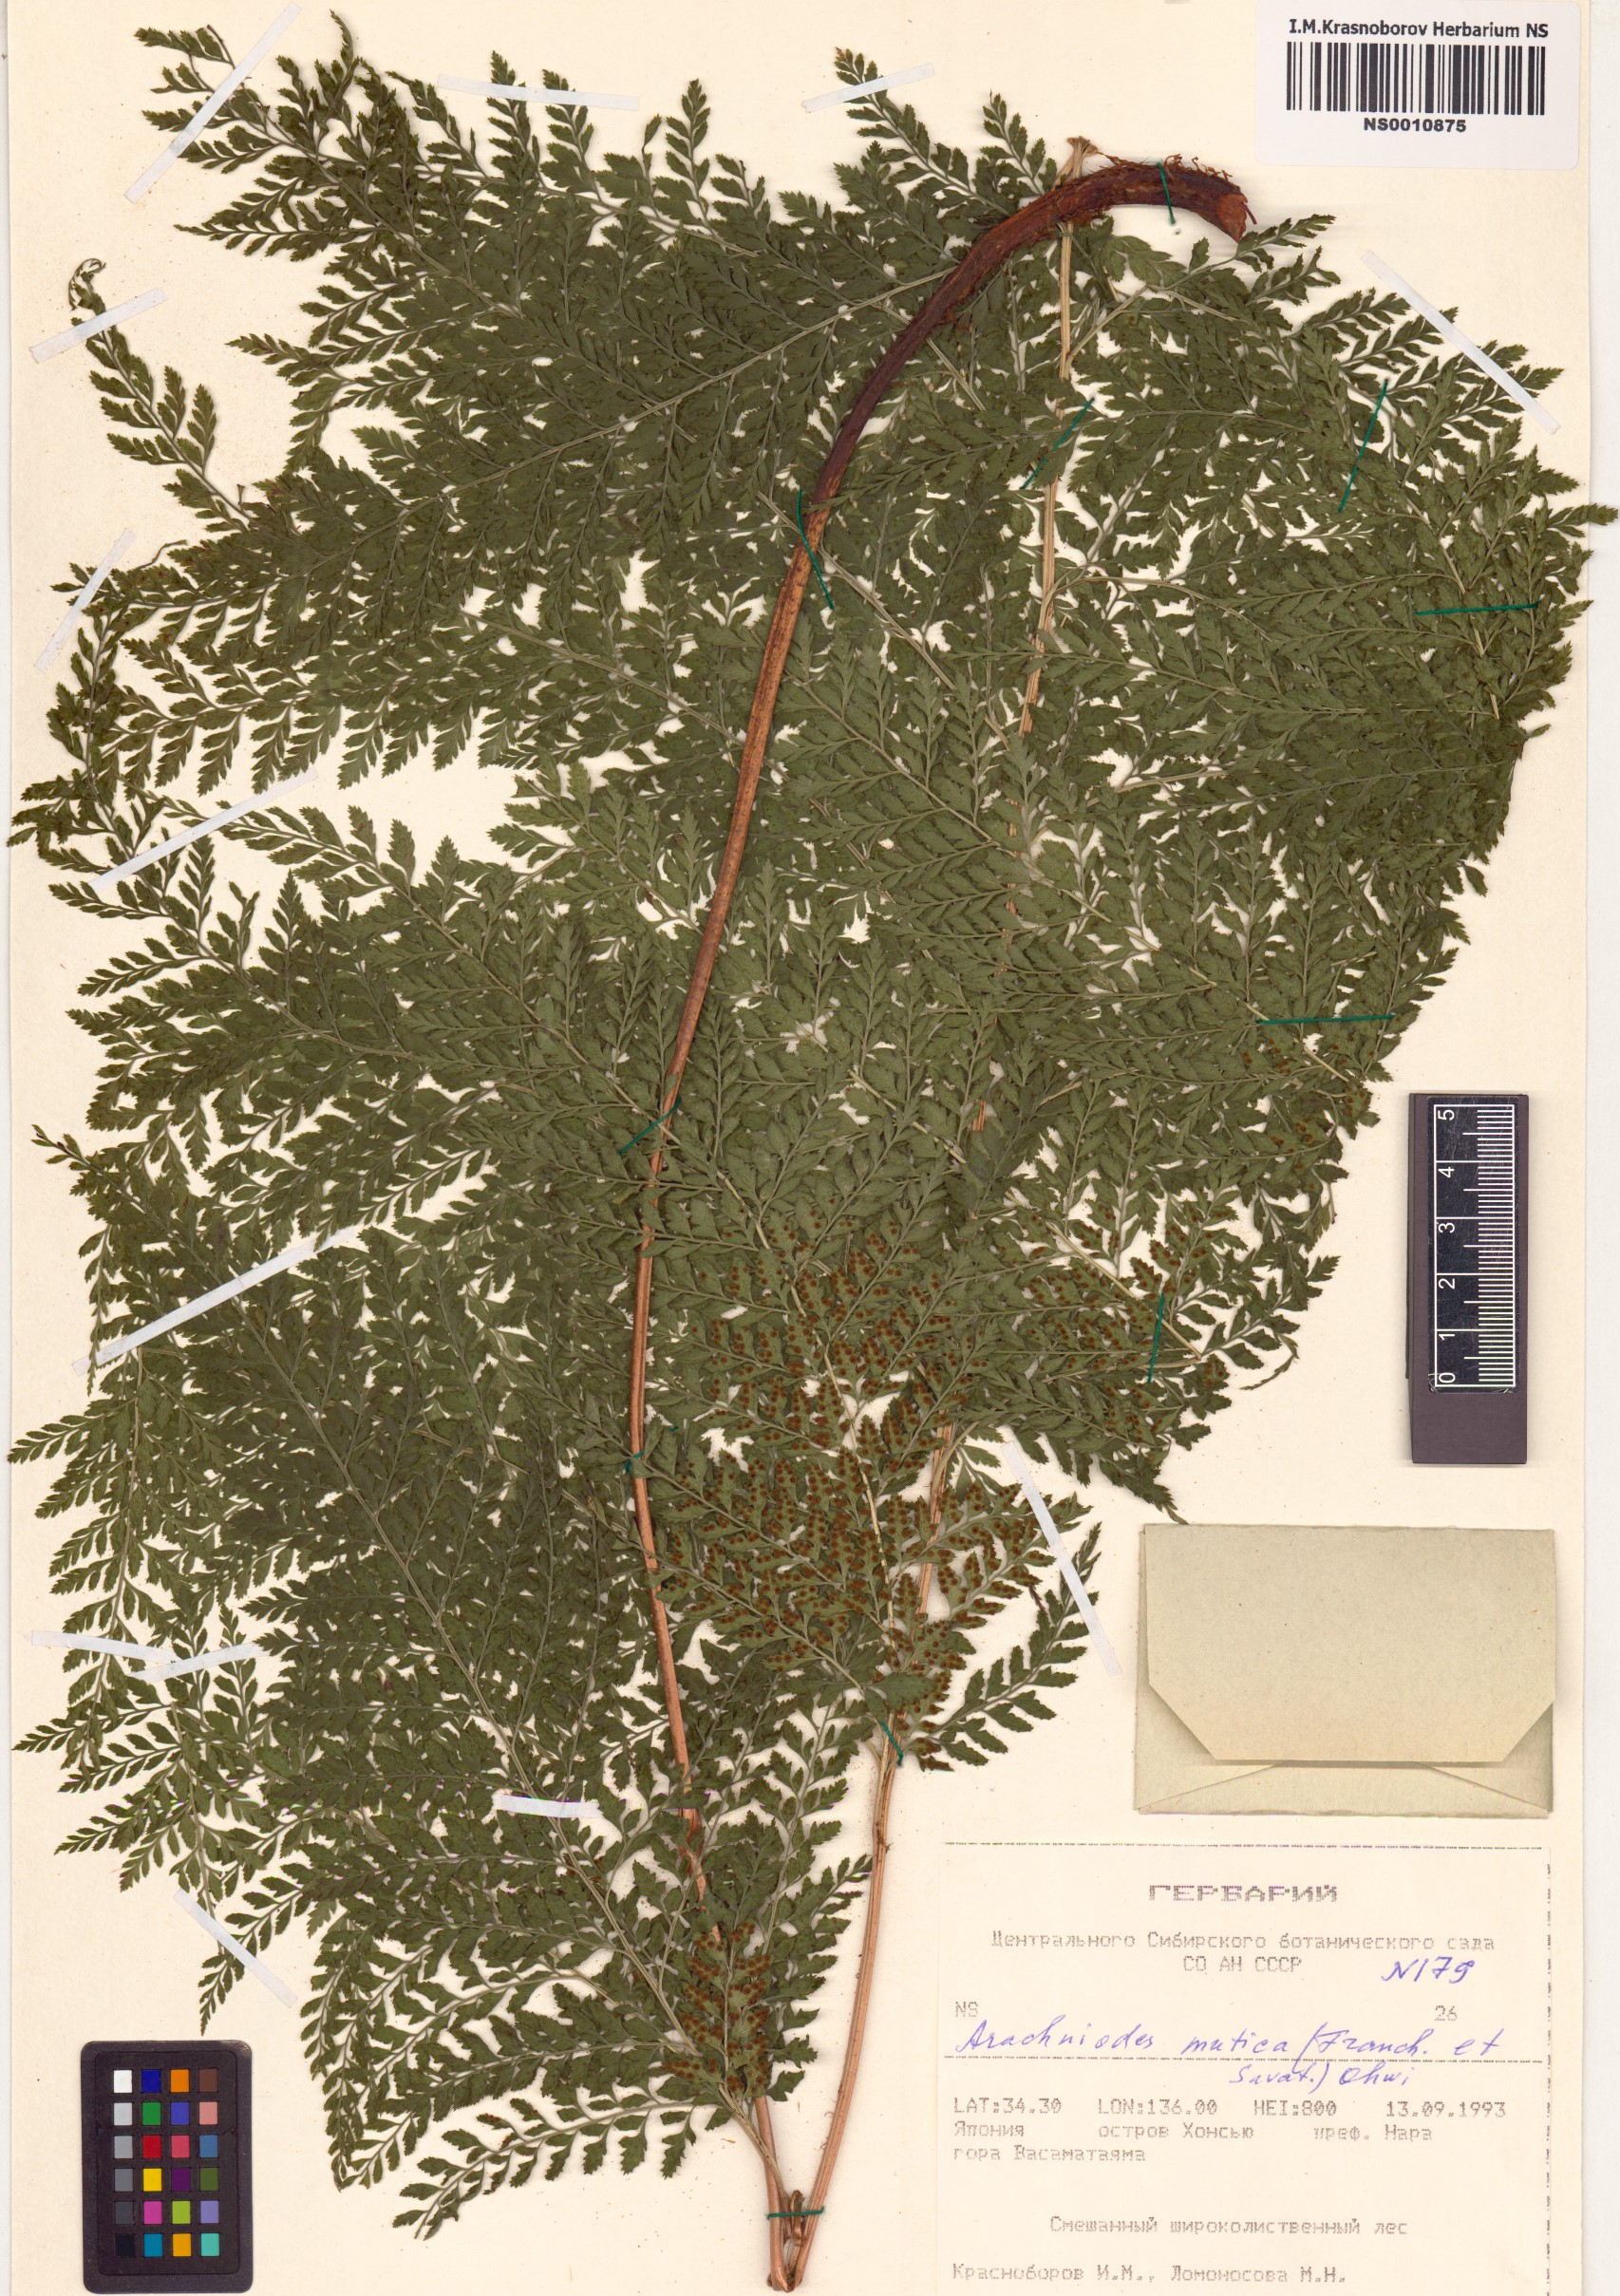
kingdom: Plantae
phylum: Tracheophyta
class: Polypodiopsida
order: Polypodiales
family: Dryopteridaceae
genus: Arachniodes
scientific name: Arachniodes mutica
